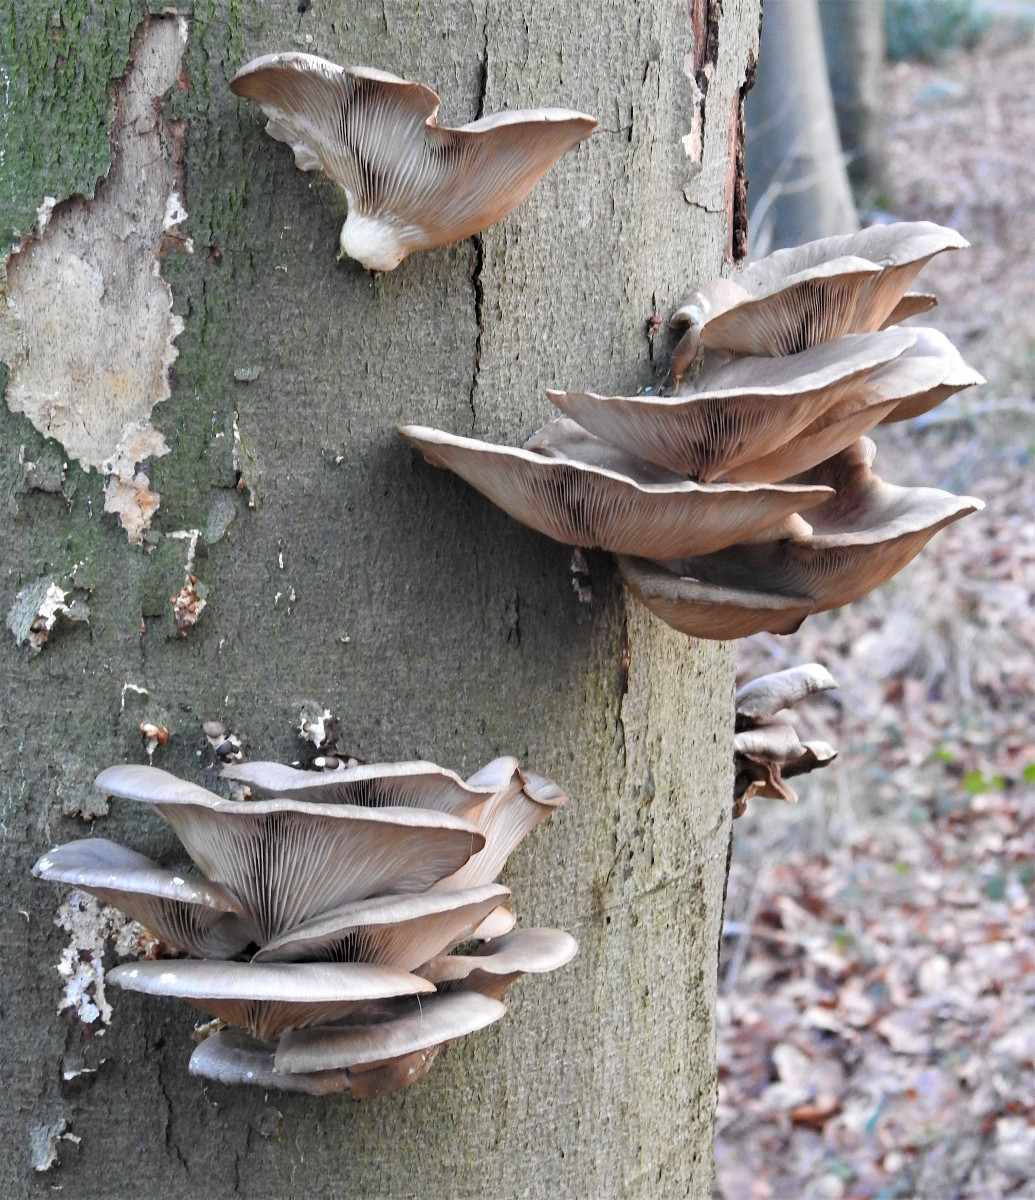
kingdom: Fungi
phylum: Basidiomycota
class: Agaricomycetes
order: Agaricales
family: Pleurotaceae
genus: Pleurotus
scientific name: Pleurotus ostreatus
